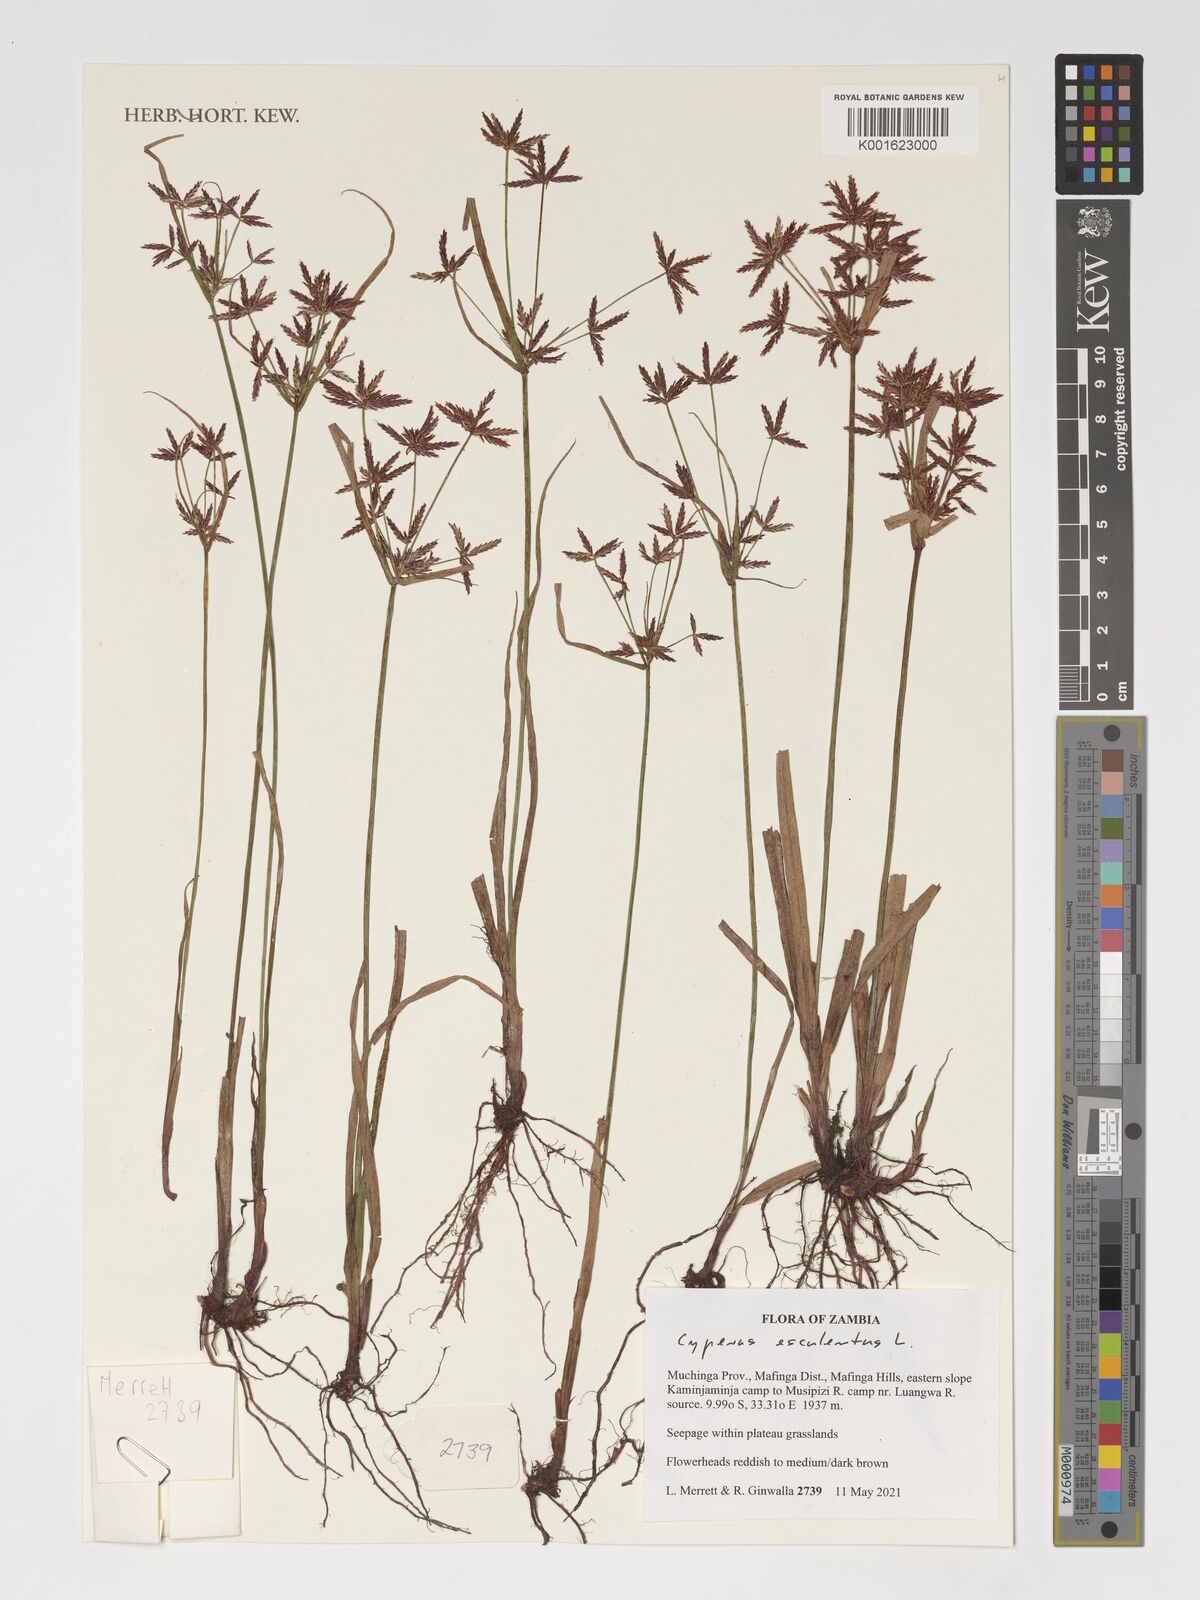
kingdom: Plantae
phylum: Tracheophyta
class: Liliopsida
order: Poales
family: Cyperaceae
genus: Cyperus
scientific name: Cyperus esculentus
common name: Yellow nutsedge
